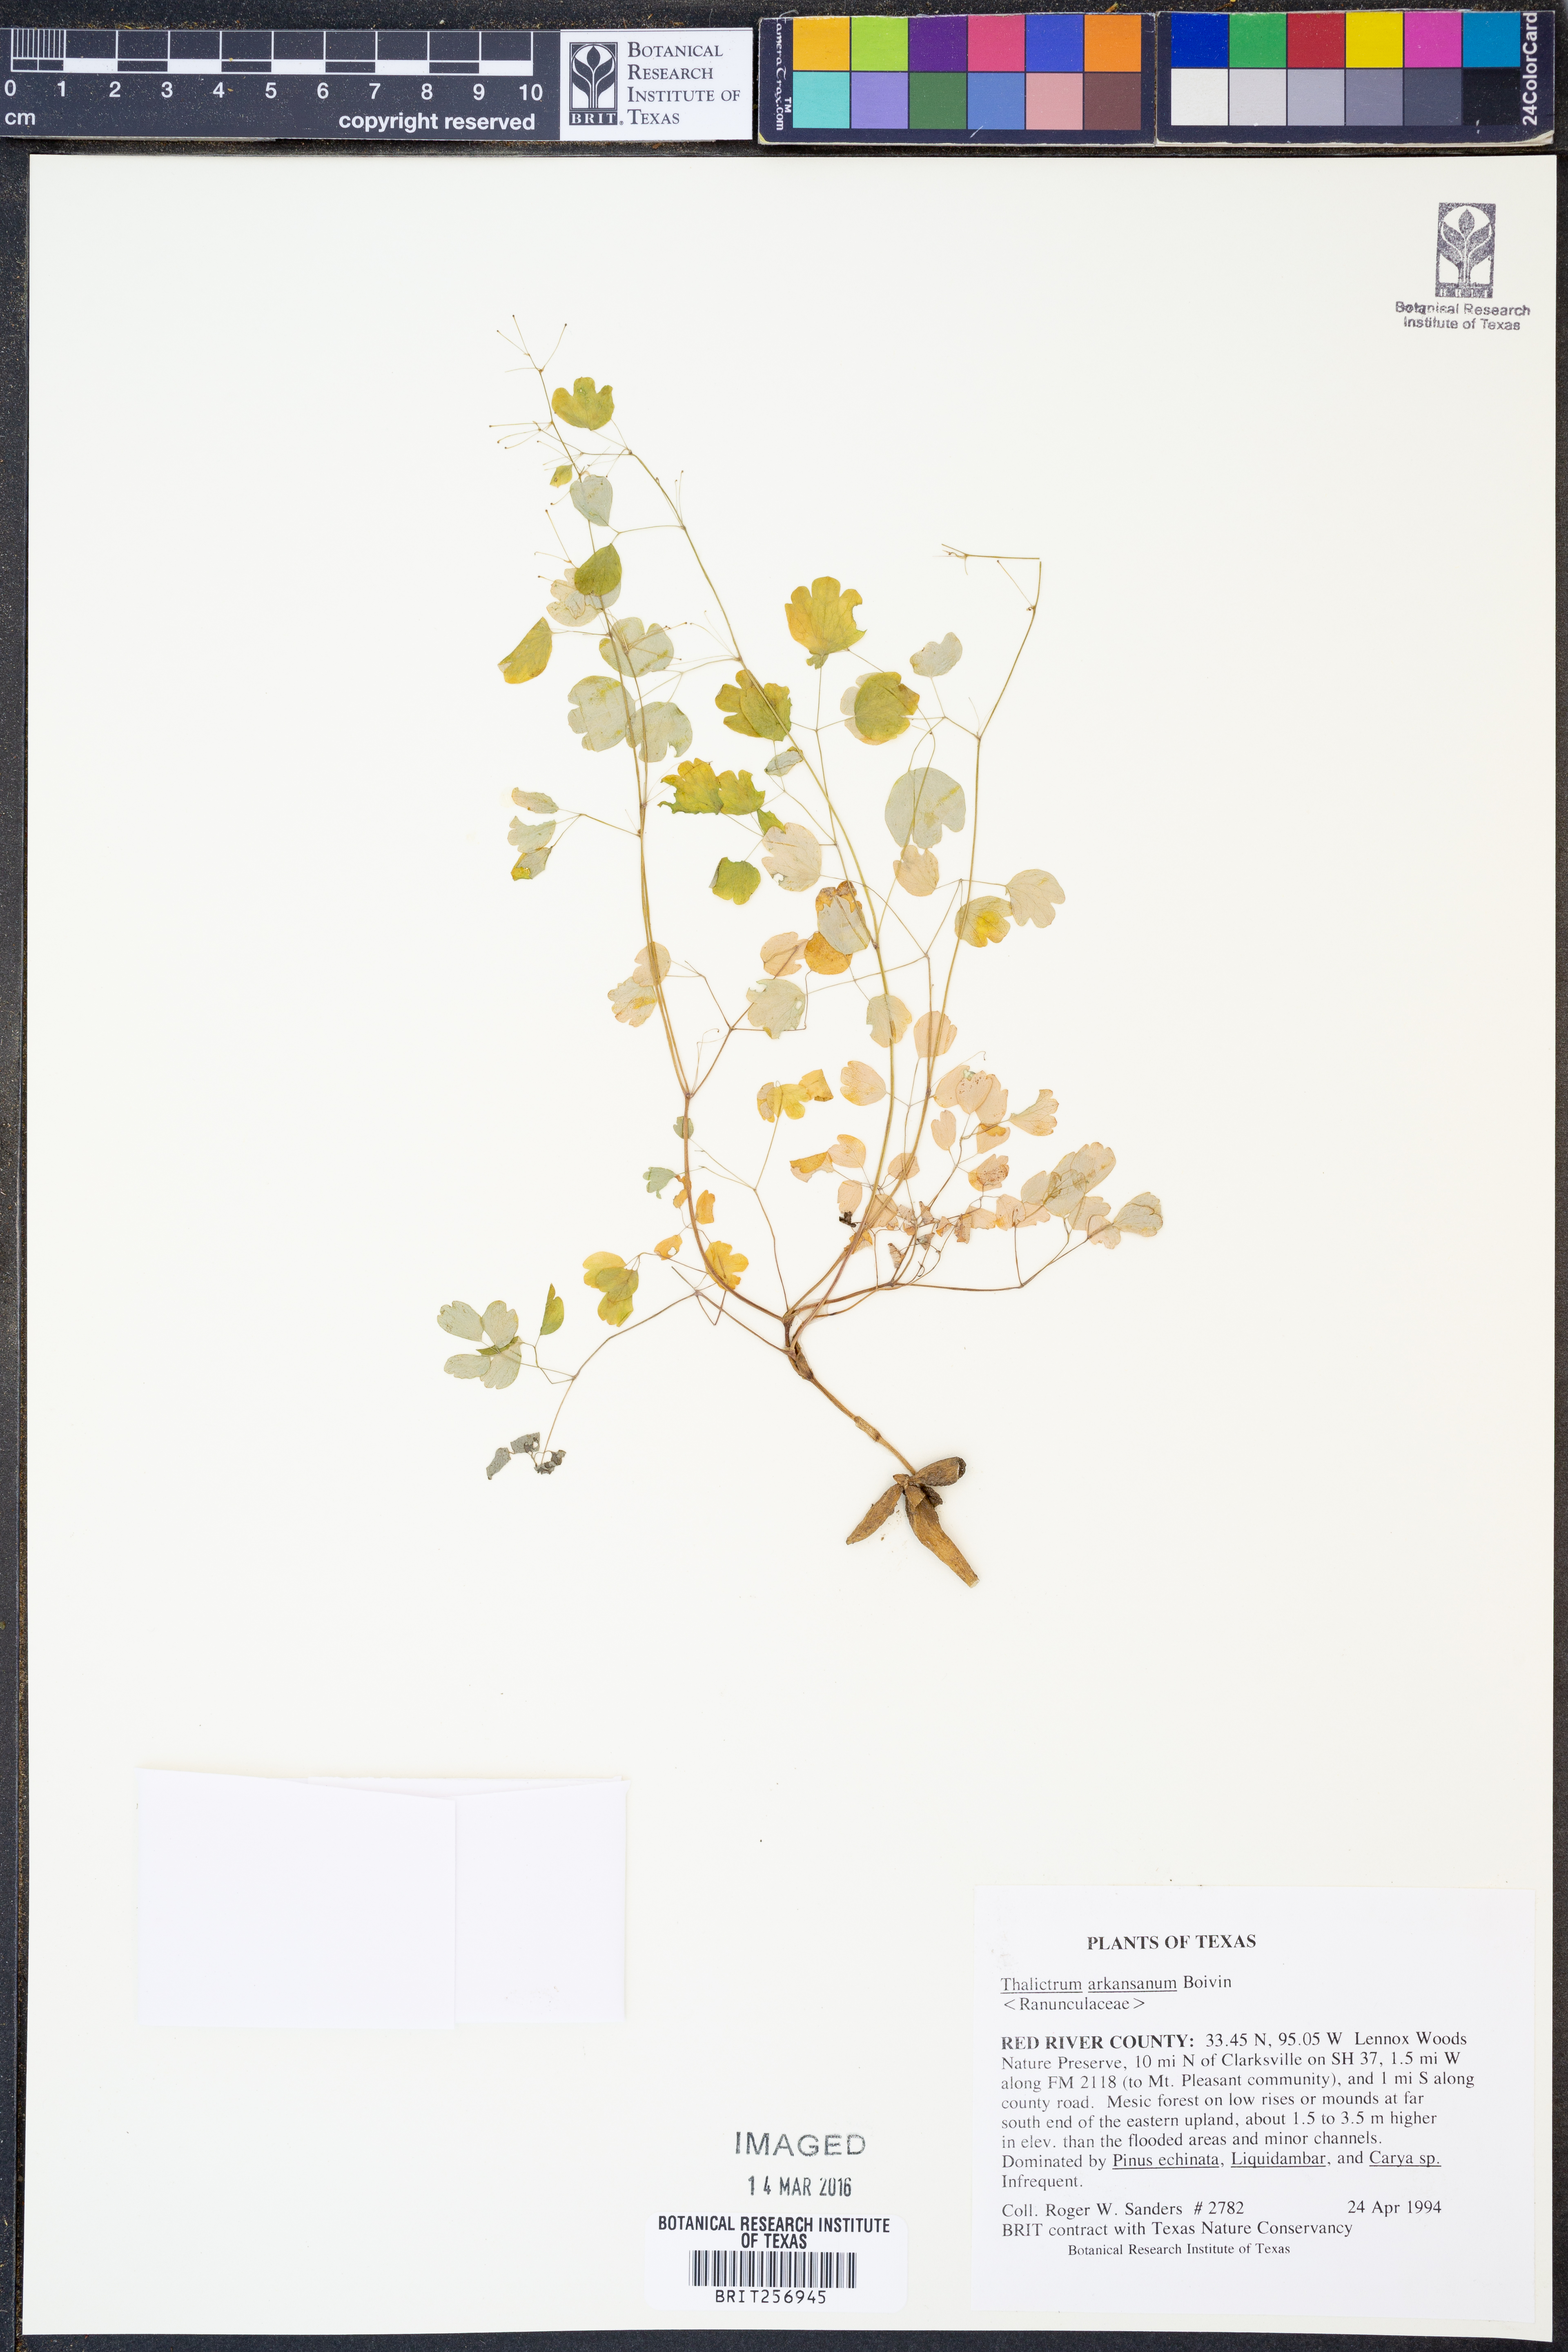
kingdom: Plantae
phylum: Tracheophyta
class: Magnoliopsida
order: Ranunculales
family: Ranunculaceae
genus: Thalictrum
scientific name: Thalictrum arkansanum
